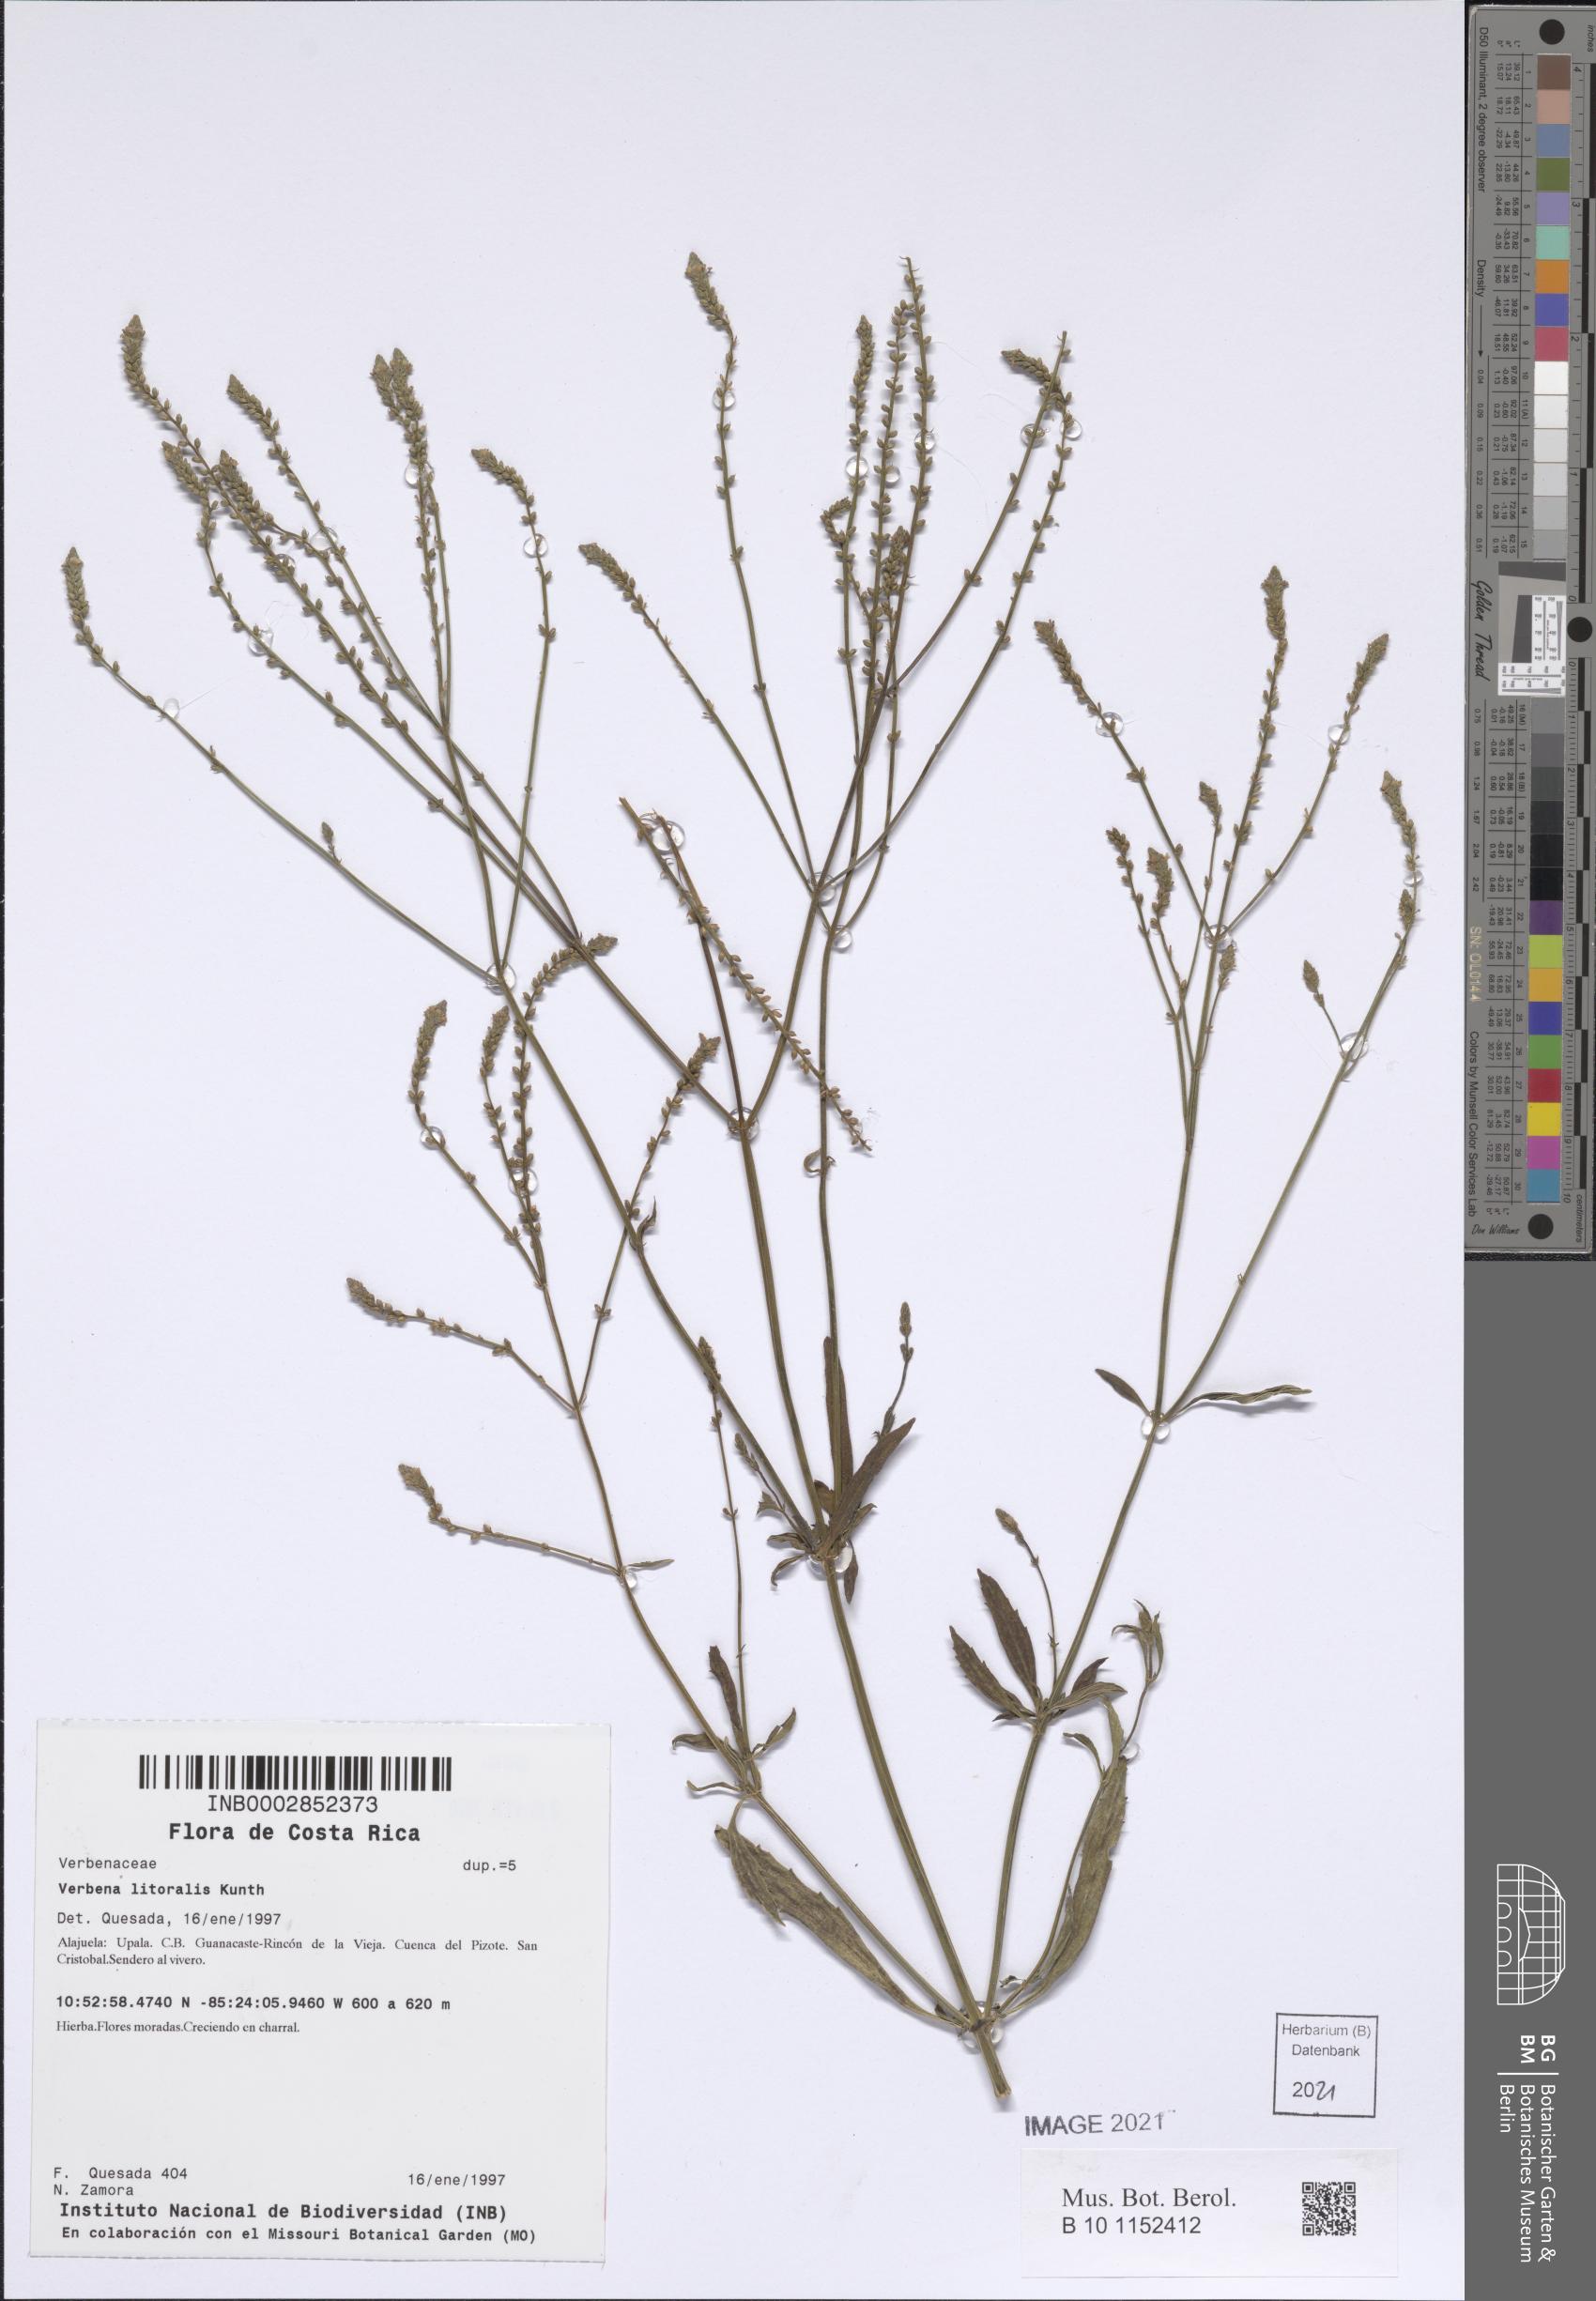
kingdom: Plantae
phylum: Tracheophyta
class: Magnoliopsida
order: Lamiales
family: Verbenaceae
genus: Verbena
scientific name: Verbena litoralis
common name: Seashore vervain
